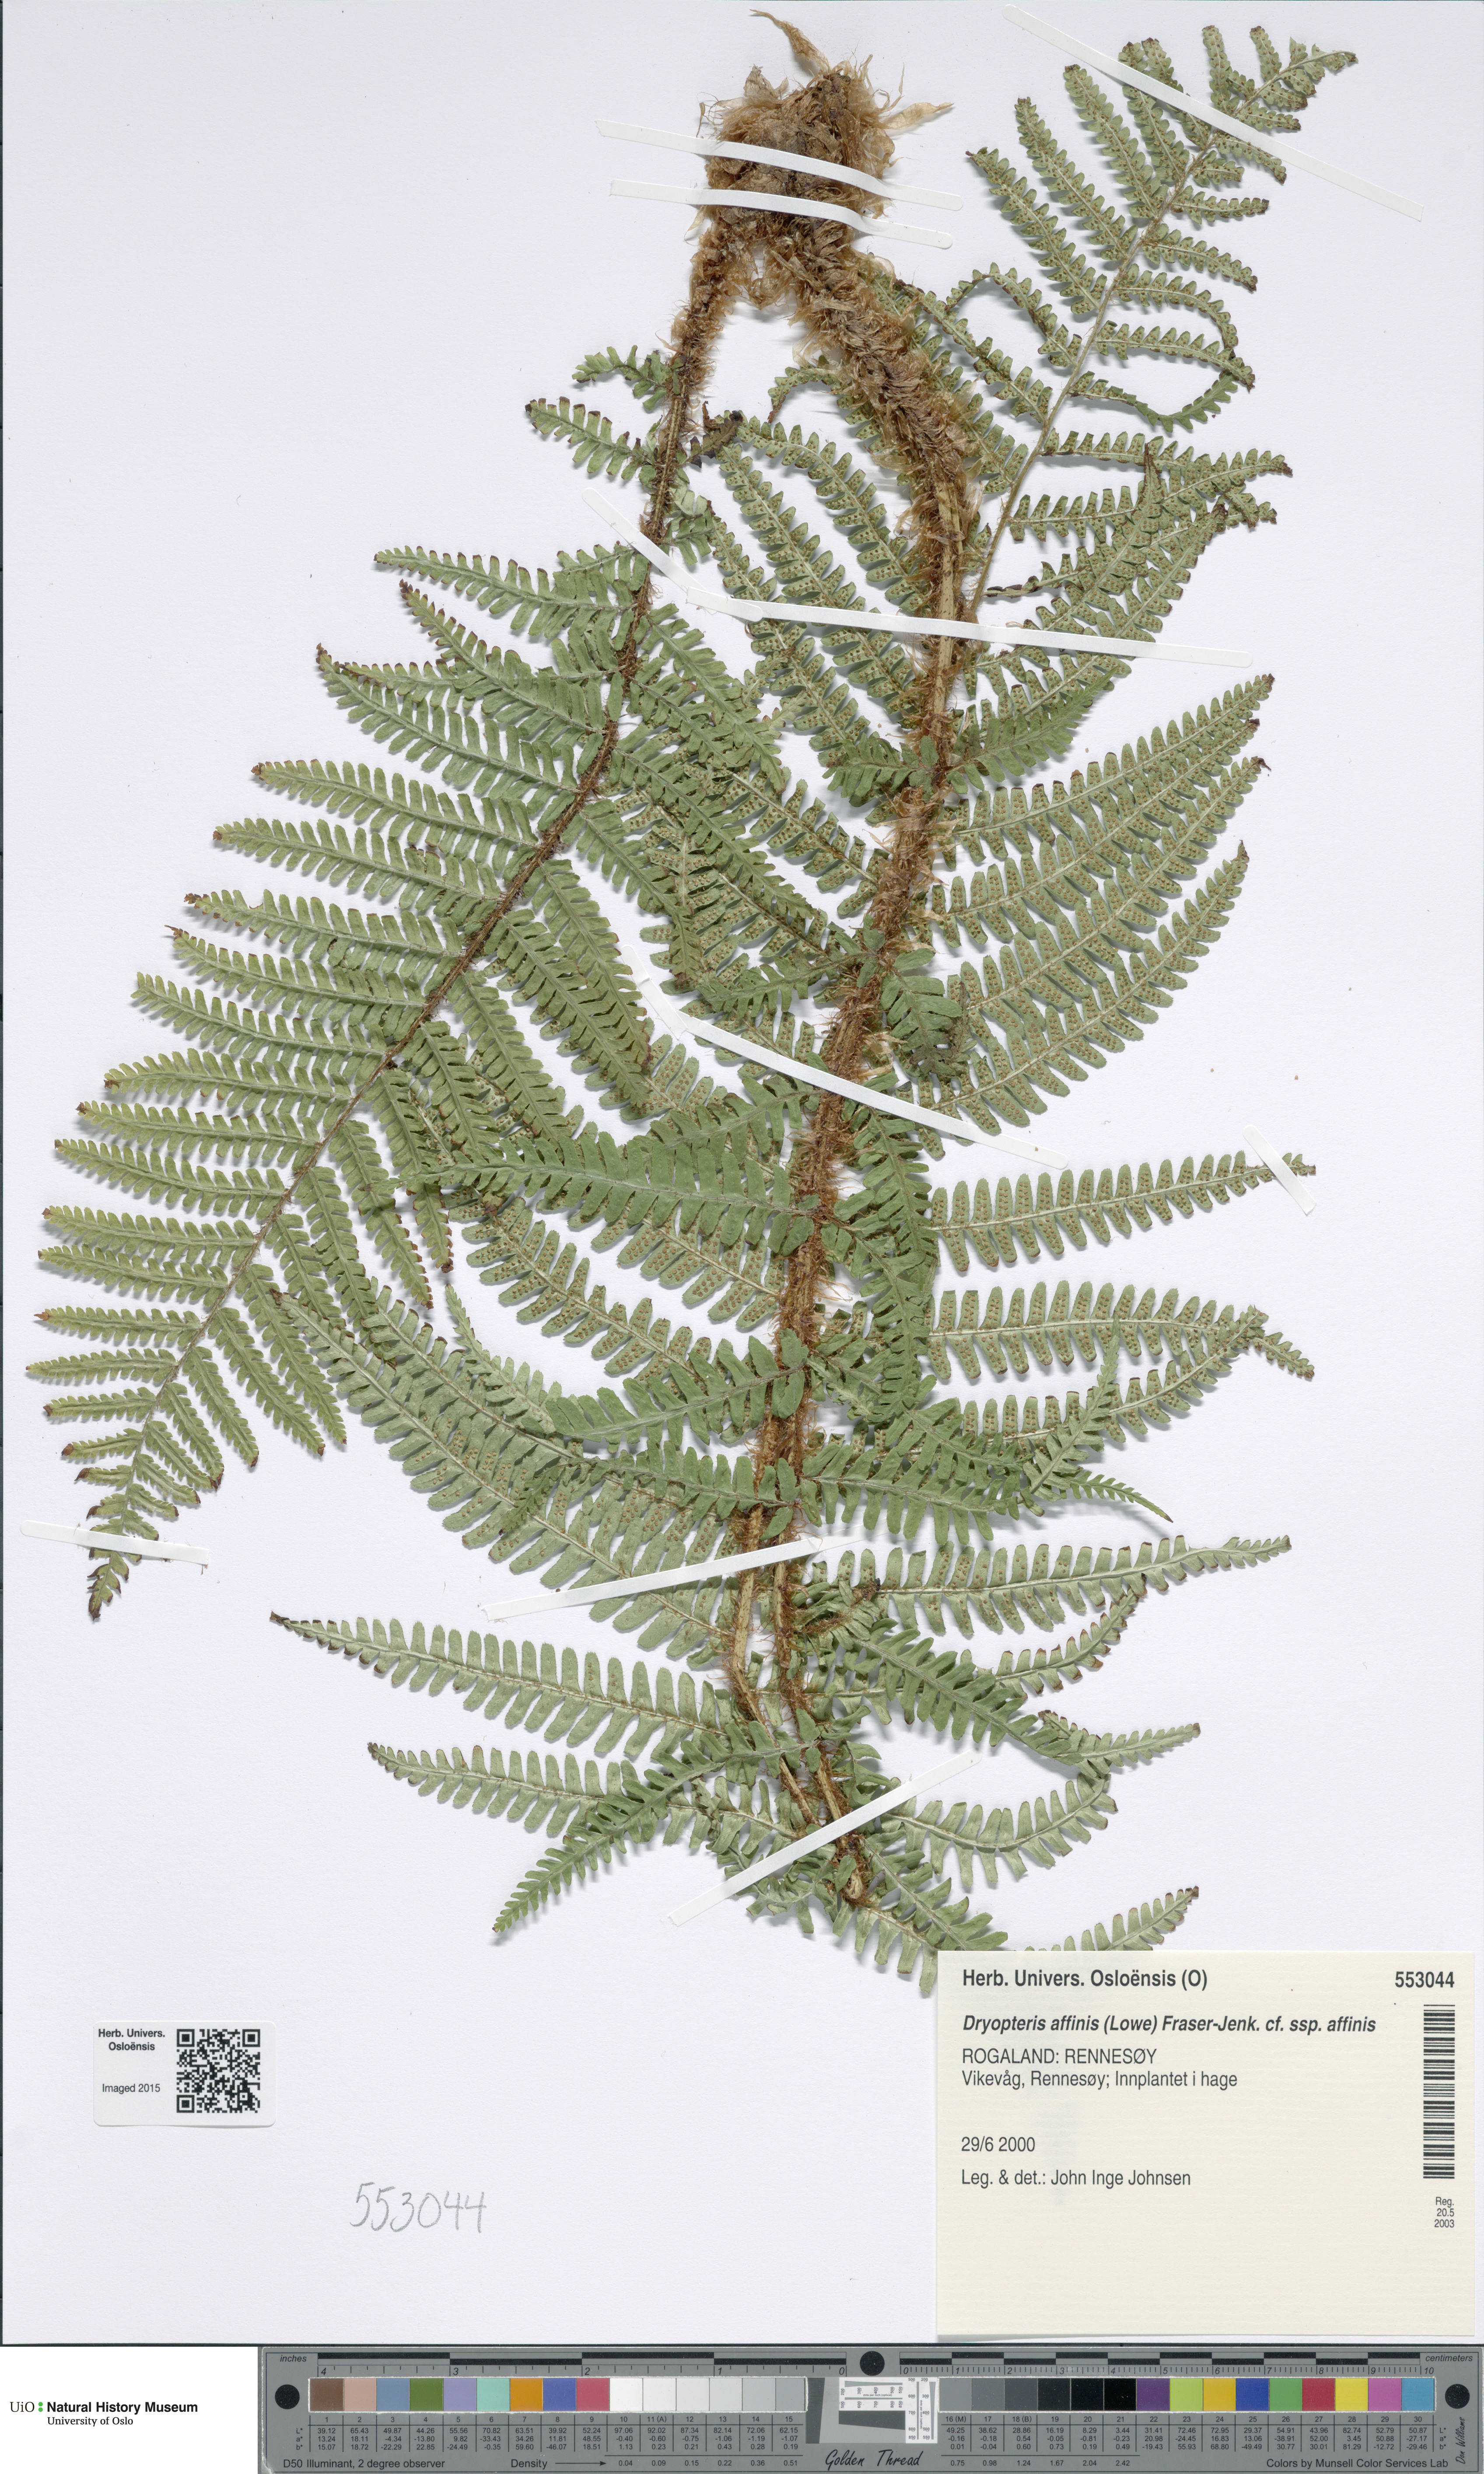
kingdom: Plantae
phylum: Tracheophyta
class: Polypodiopsida
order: Polypodiales
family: Dryopteridaceae
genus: Dryopteris
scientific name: Dryopteris affinis
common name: Scaly male fern
